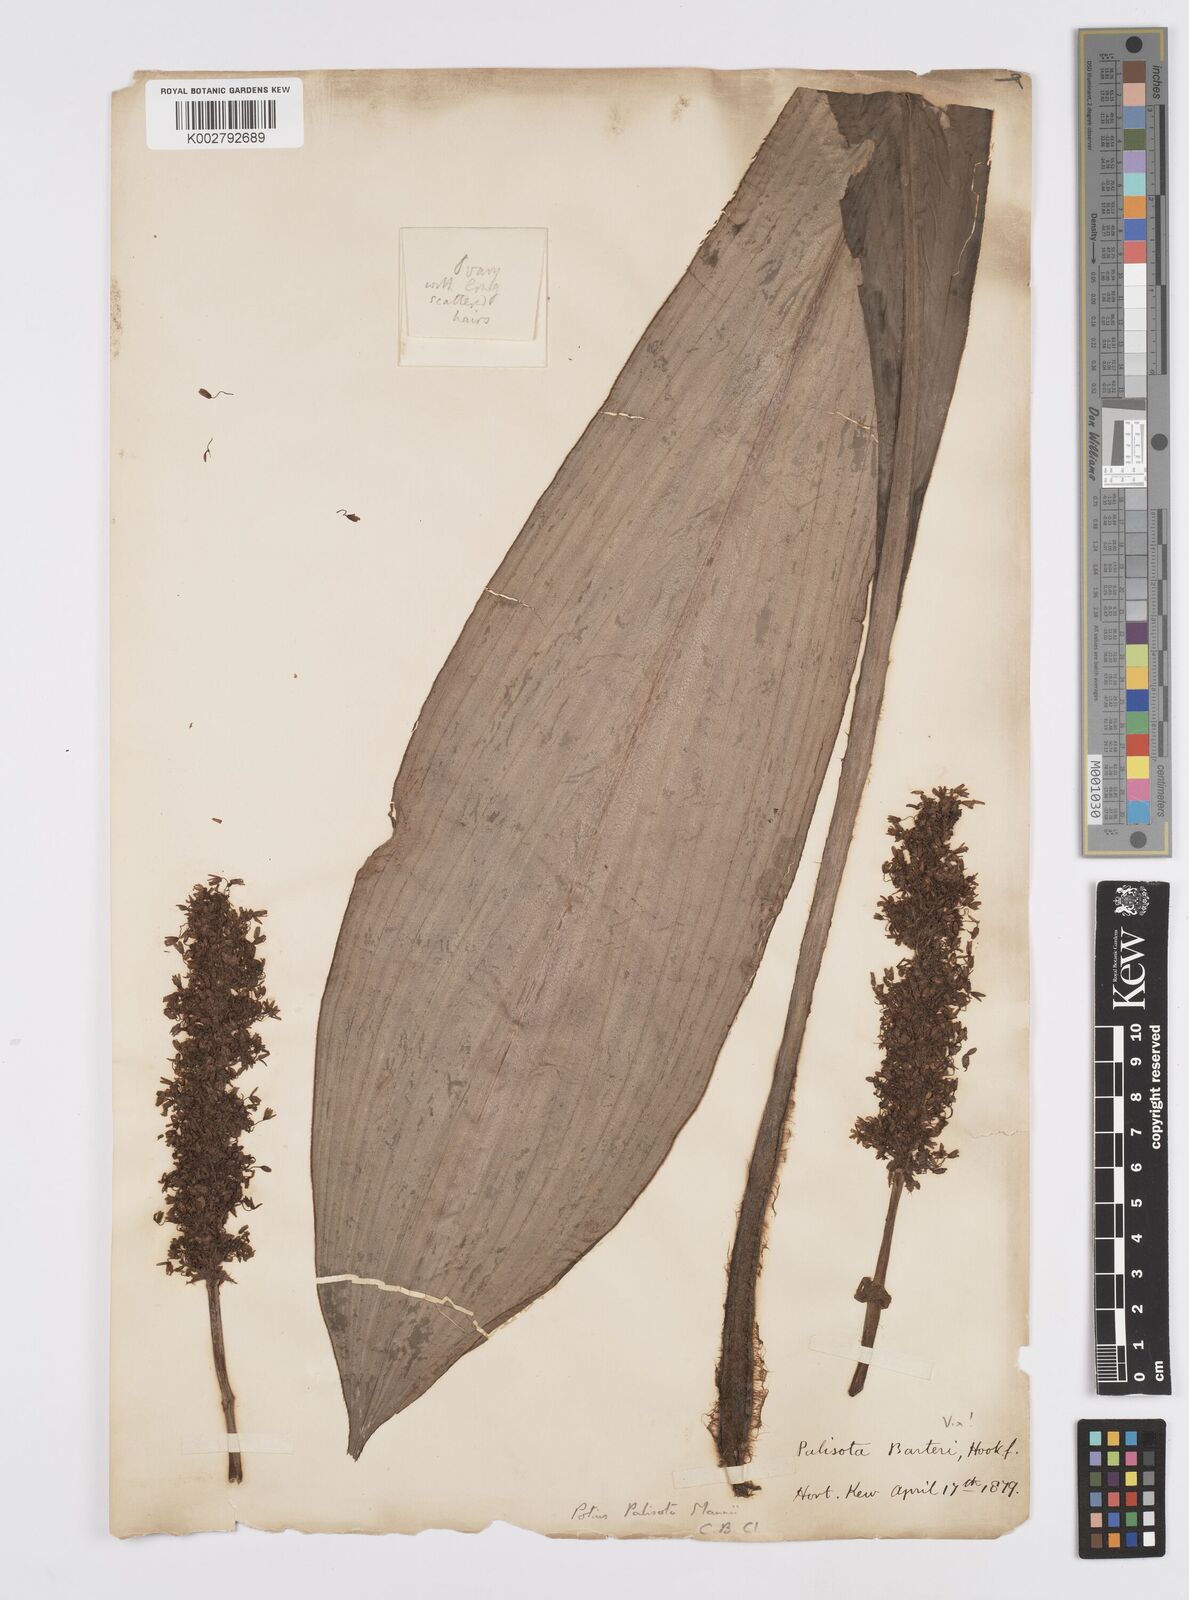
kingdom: Plantae
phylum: Tracheophyta
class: Liliopsida
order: Commelinales
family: Commelinaceae
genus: Palisota
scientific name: Palisota mannii
